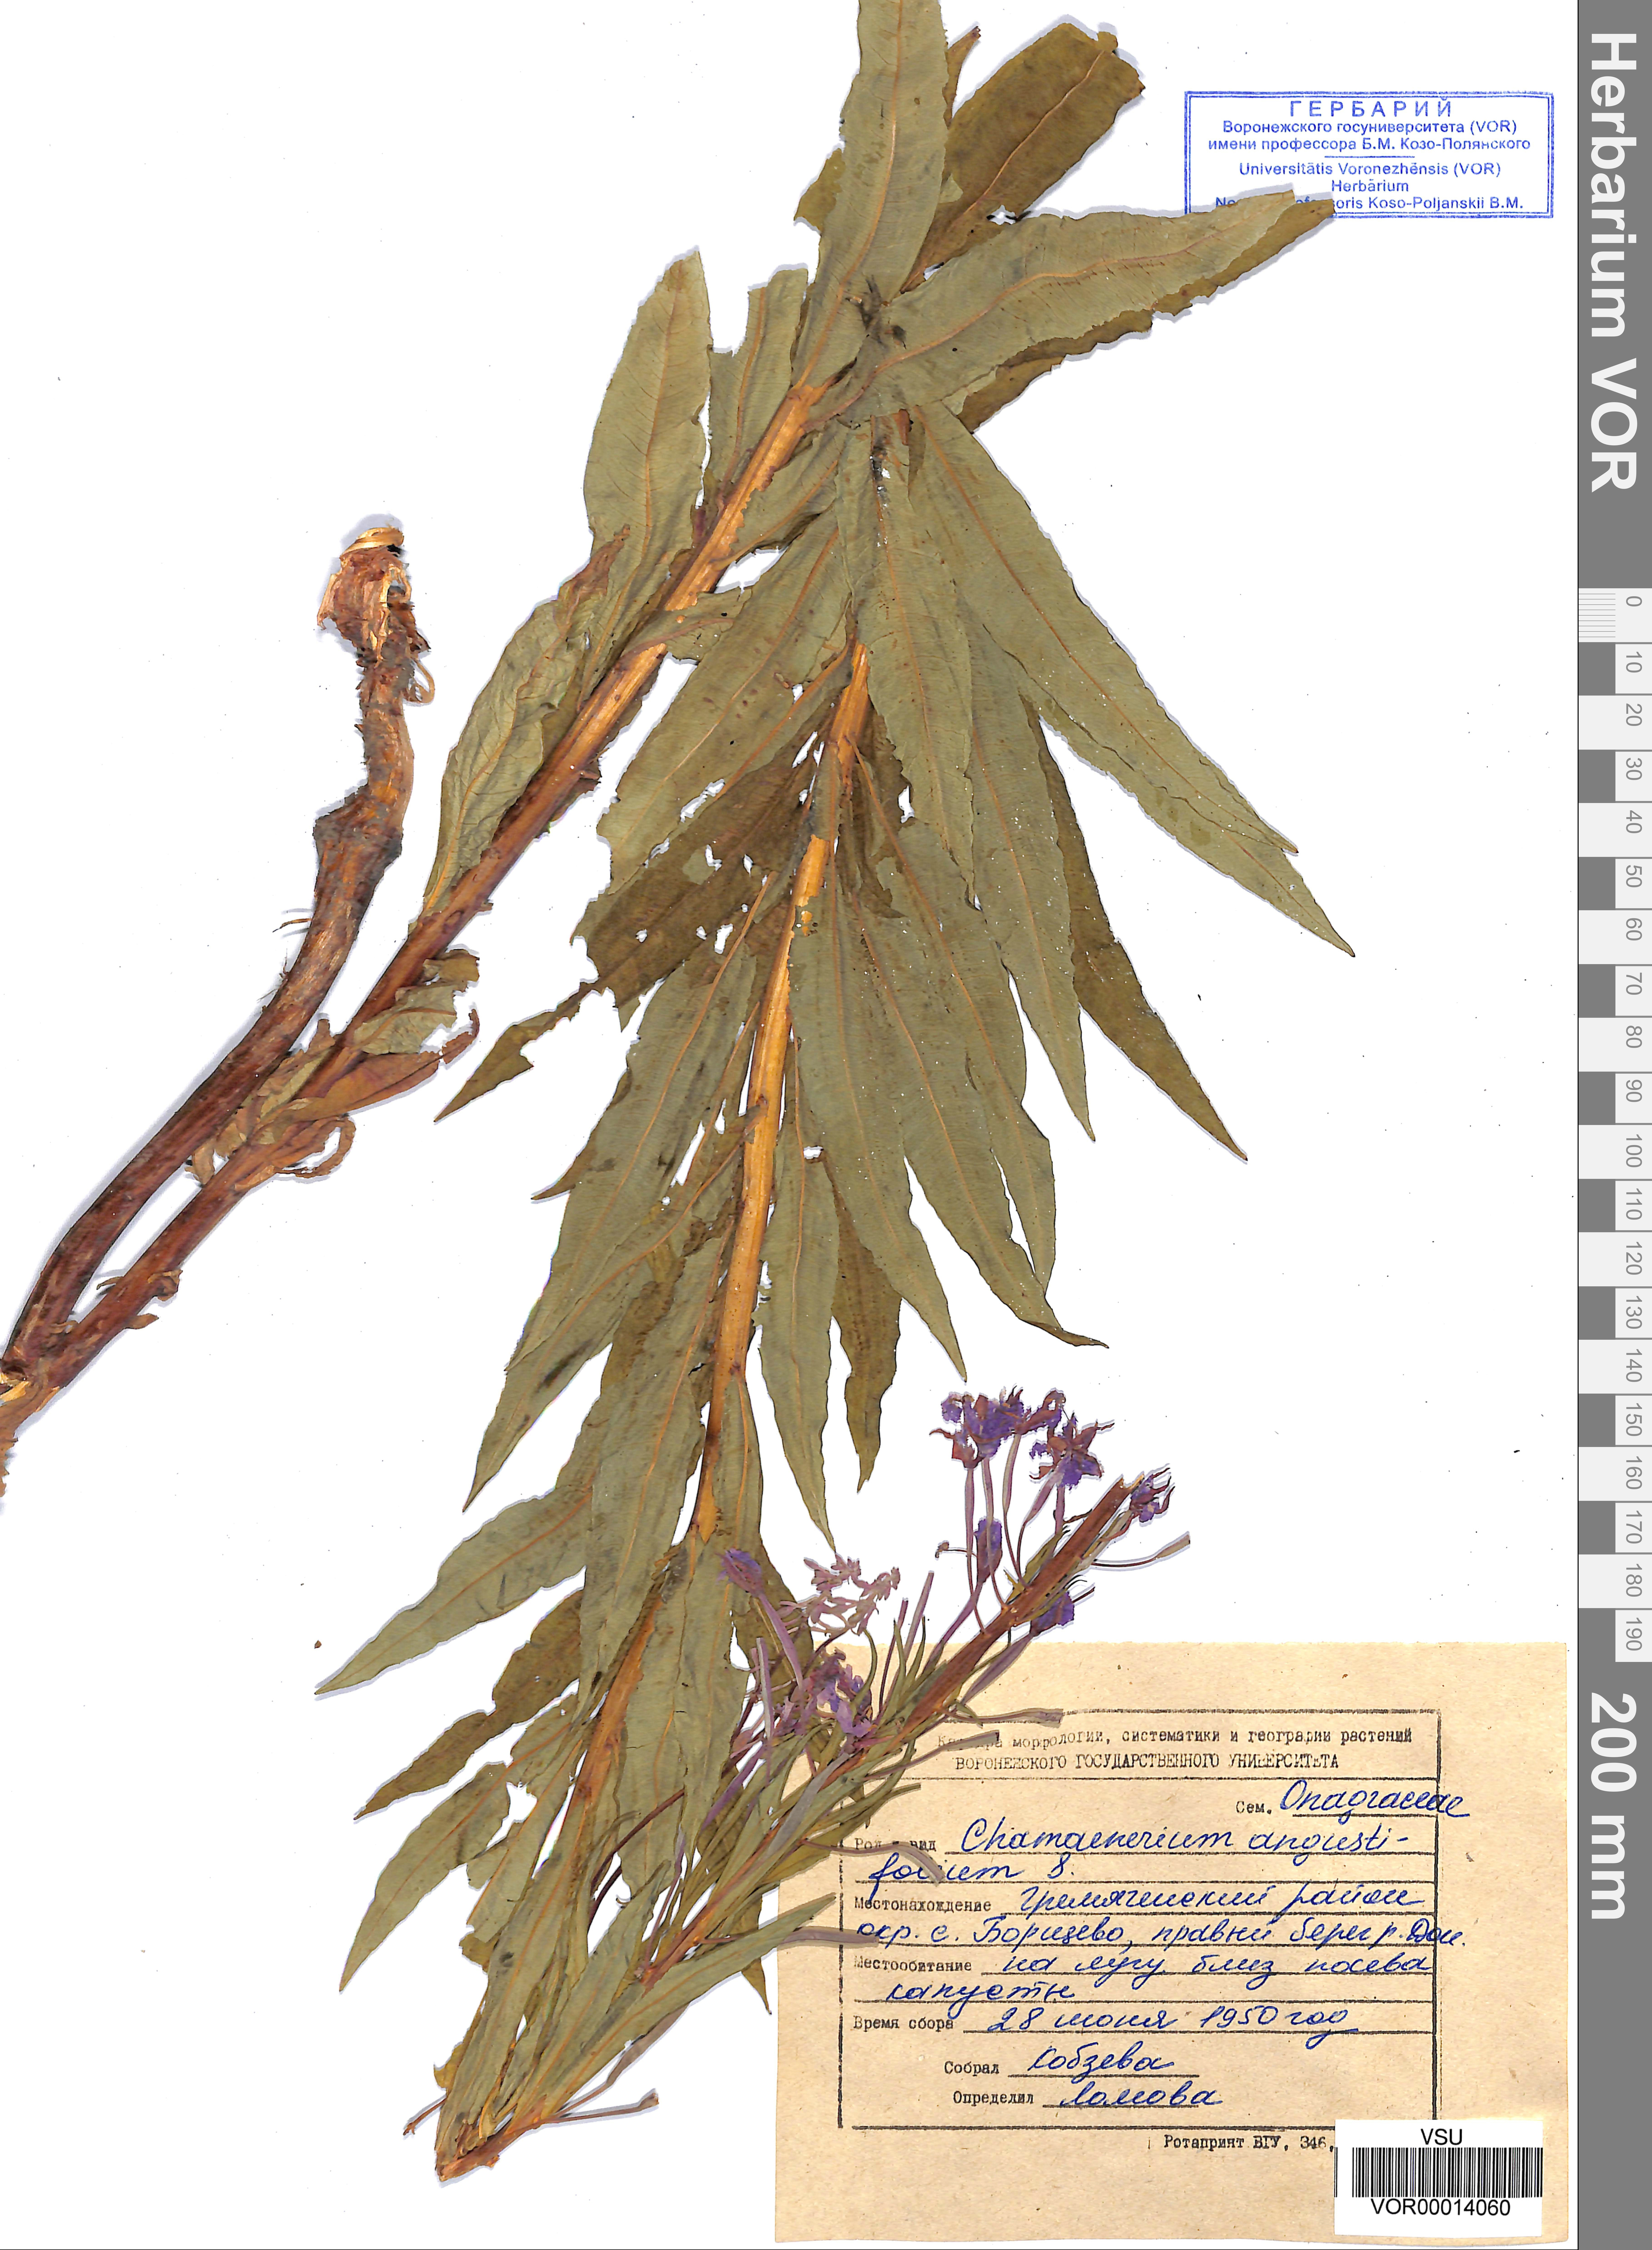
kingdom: Plantae
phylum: Tracheophyta
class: Magnoliopsida
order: Myrtales
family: Onagraceae
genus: Chamaenerion
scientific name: Chamaenerion angustifolium
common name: Fireweed
